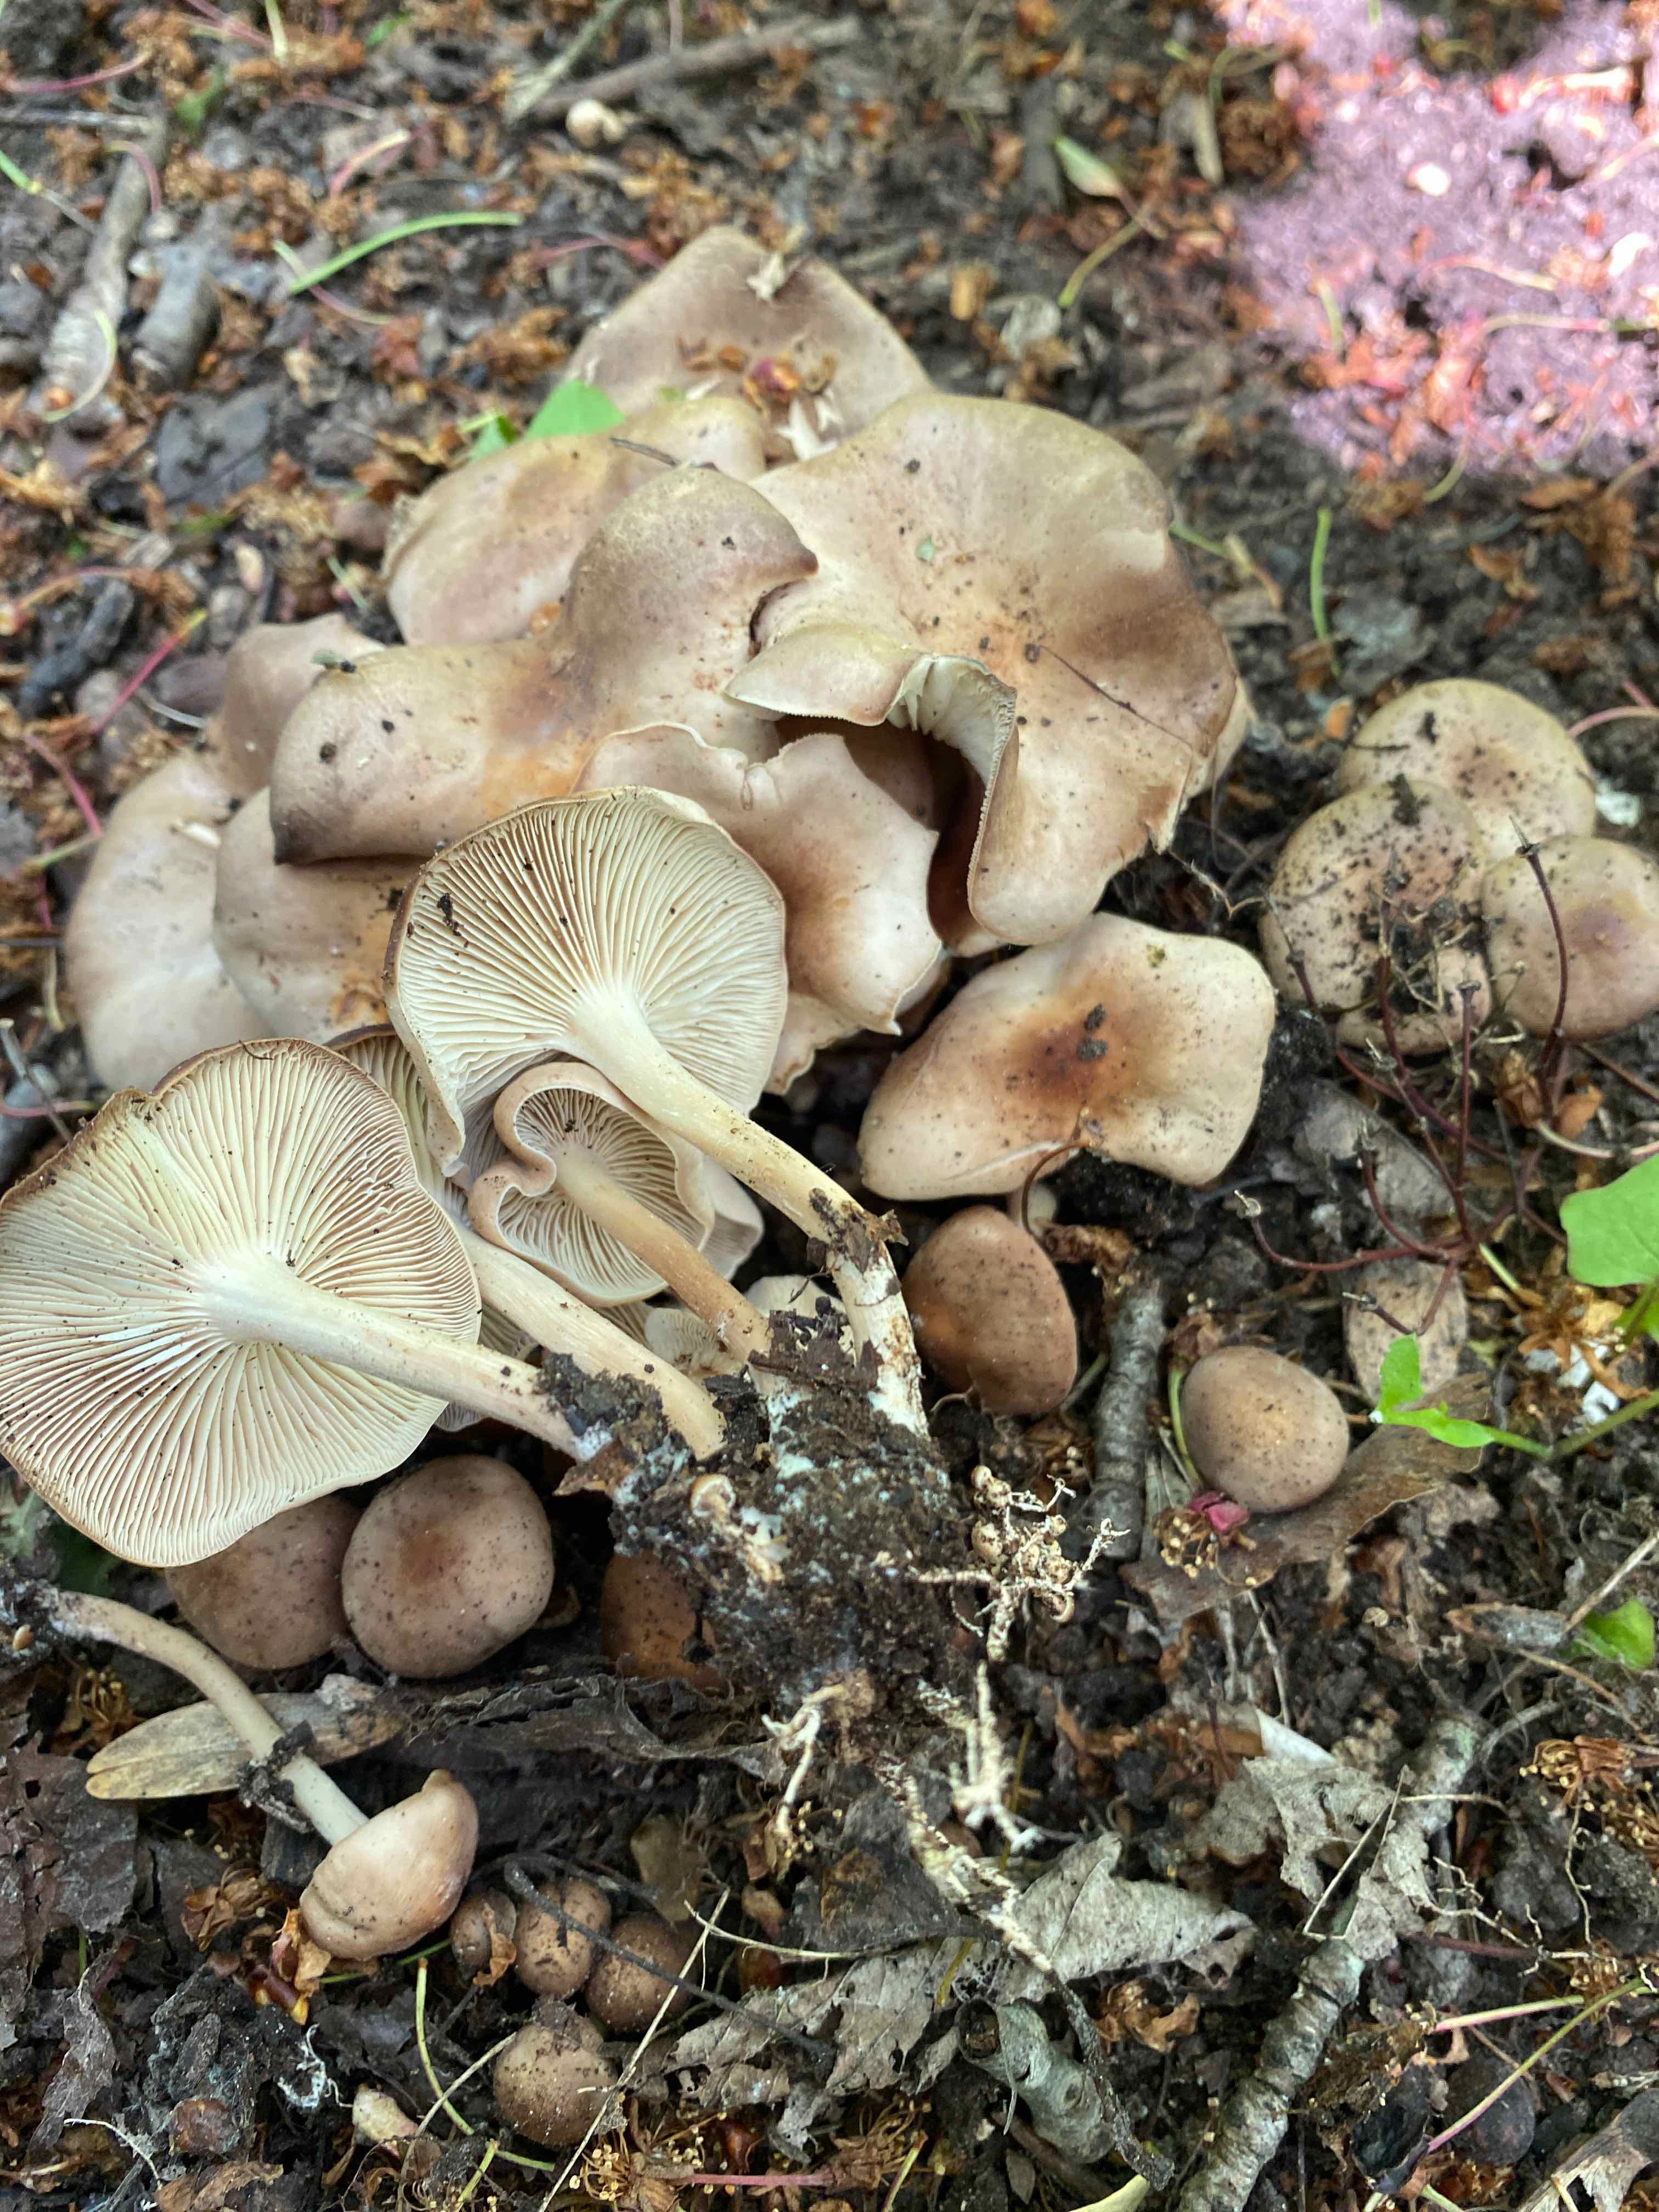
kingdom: Fungi
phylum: Basidiomycota
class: Agaricomycetes
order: Agaricales
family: Omphalotaceae
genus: Gymnopus
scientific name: Gymnopus ocior
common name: mørk fladhat
